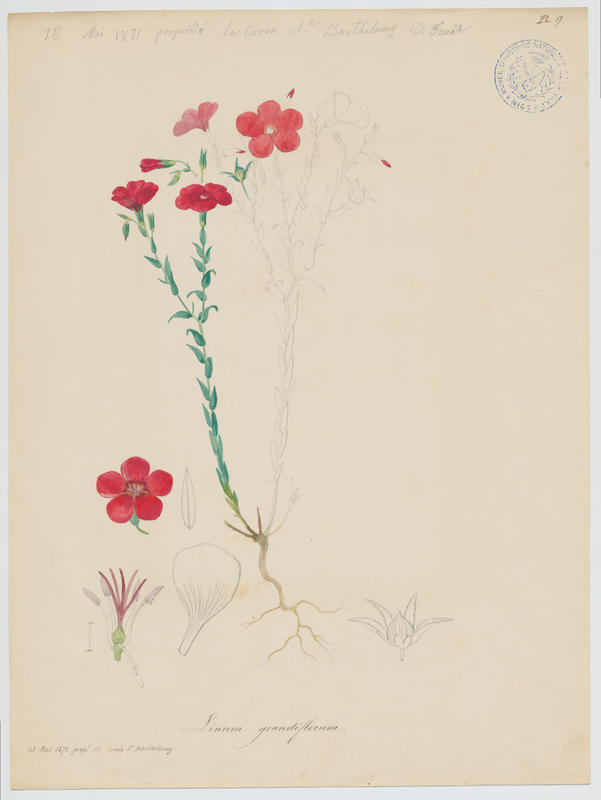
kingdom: Plantae
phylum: Tracheophyta
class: Magnoliopsida
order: Malpighiales
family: Linaceae
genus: Linum
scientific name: Linum grandiflorum
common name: Crimson flax
